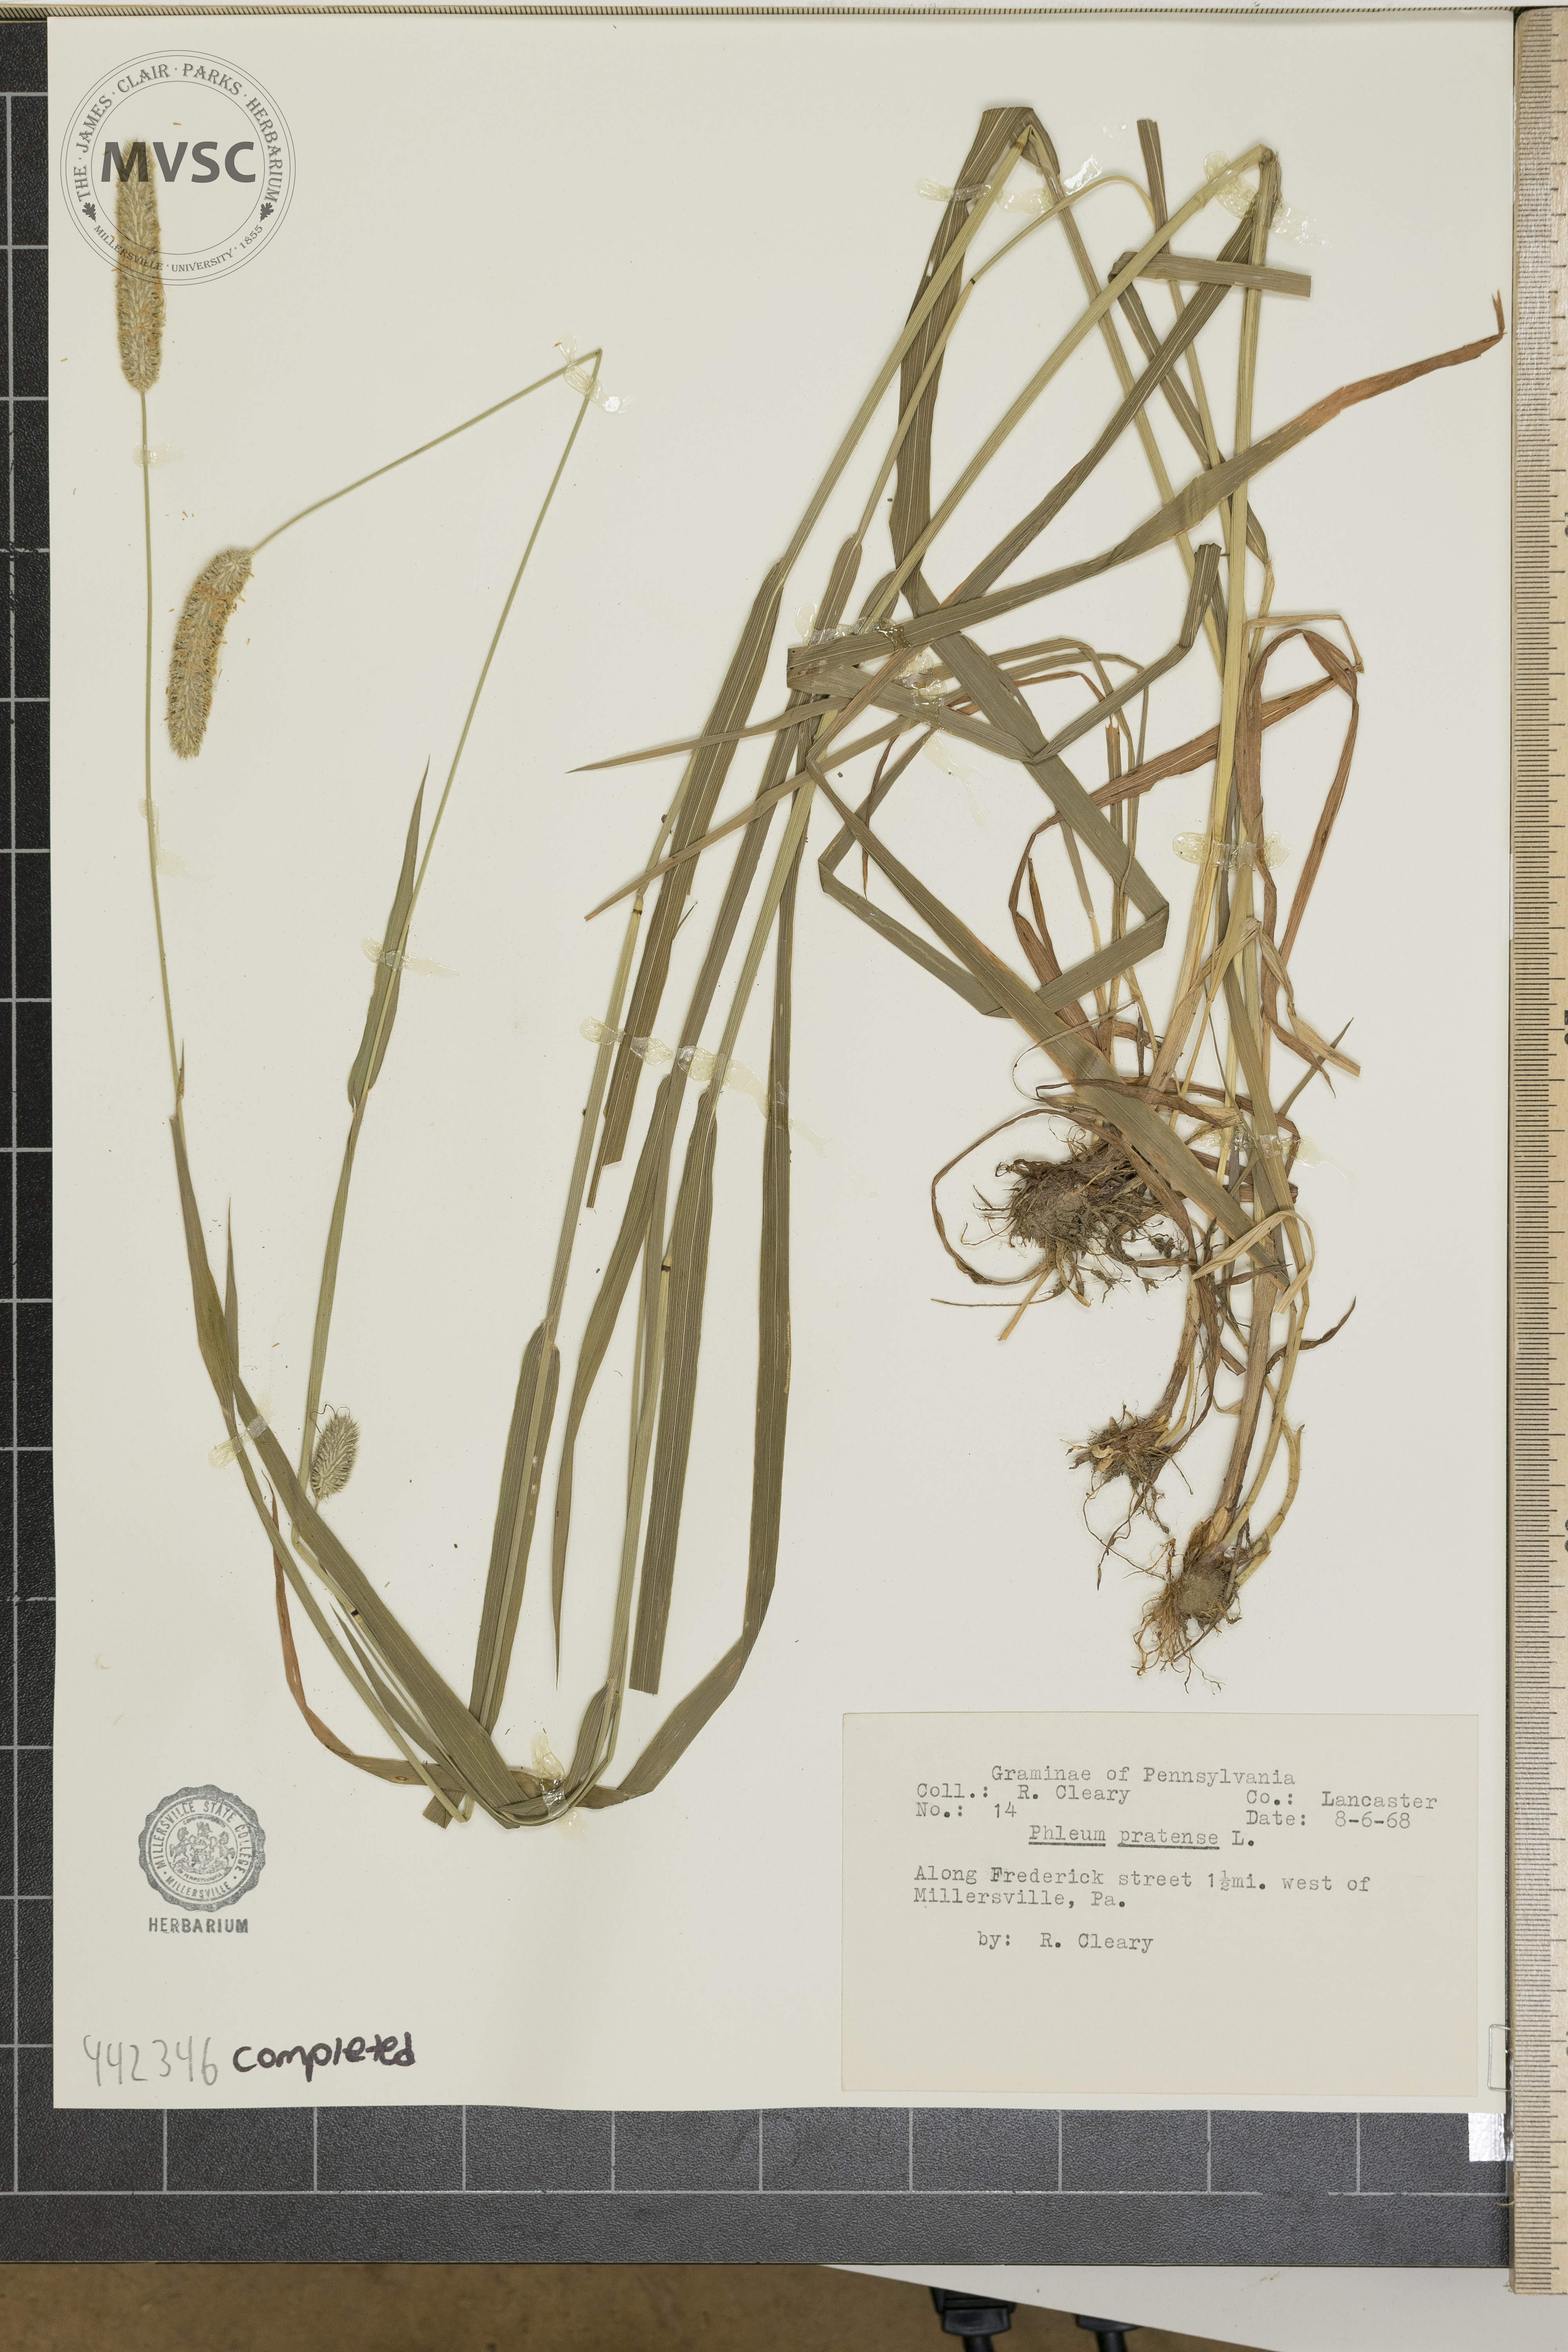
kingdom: Plantae
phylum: Tracheophyta
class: Liliopsida
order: Poales
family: Poaceae
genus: Phleum
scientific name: Phleum pratense
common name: Timothy grass
